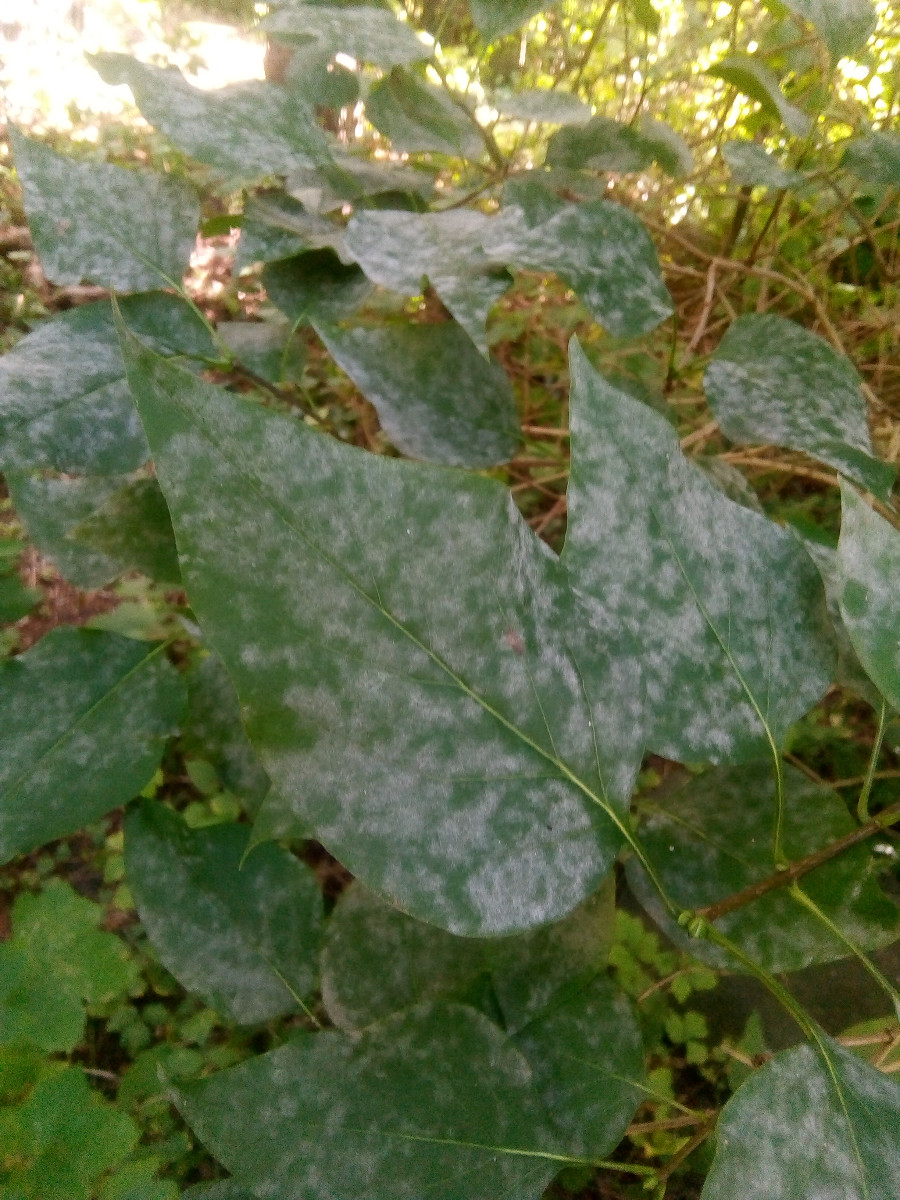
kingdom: Fungi
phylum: Ascomycota
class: Leotiomycetes
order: Helotiales
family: Erysiphaceae
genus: Erysiphe
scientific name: Erysiphe syringae-japonicae
